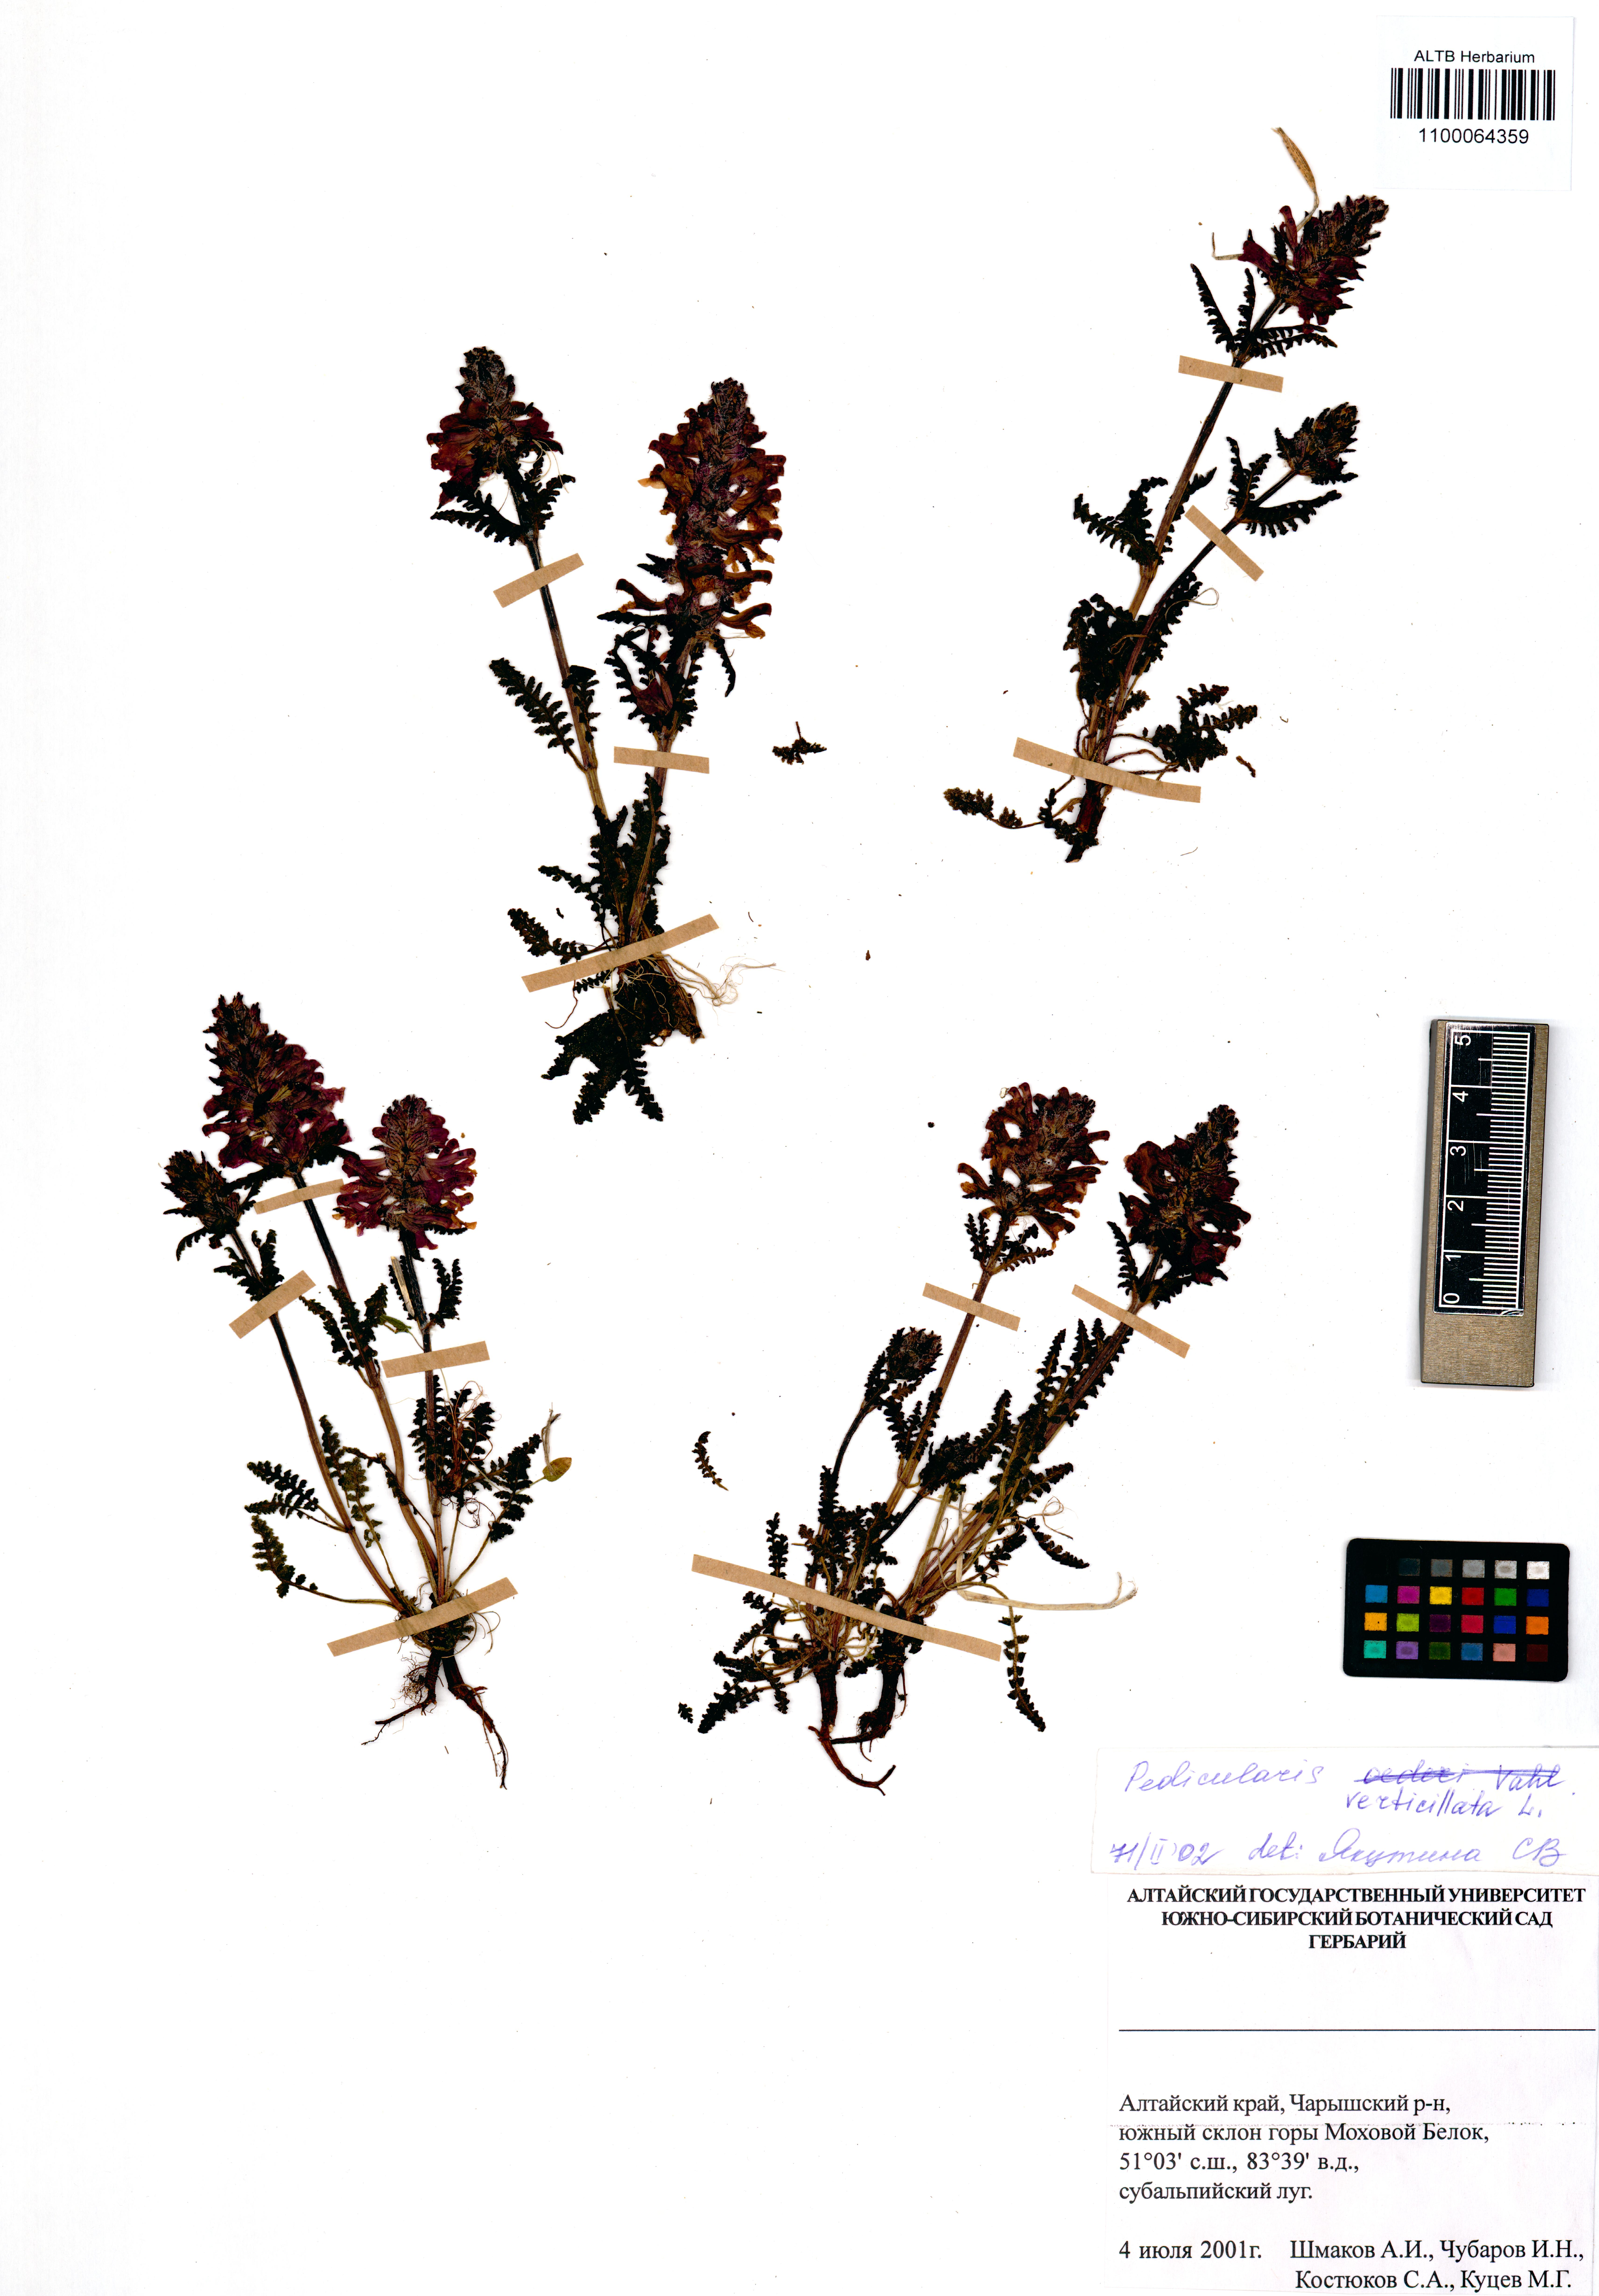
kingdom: Plantae
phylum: Tracheophyta
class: Magnoliopsida
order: Lamiales
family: Orobanchaceae
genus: Pedicularis
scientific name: Pedicularis verticillata
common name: Whorled lousewort
